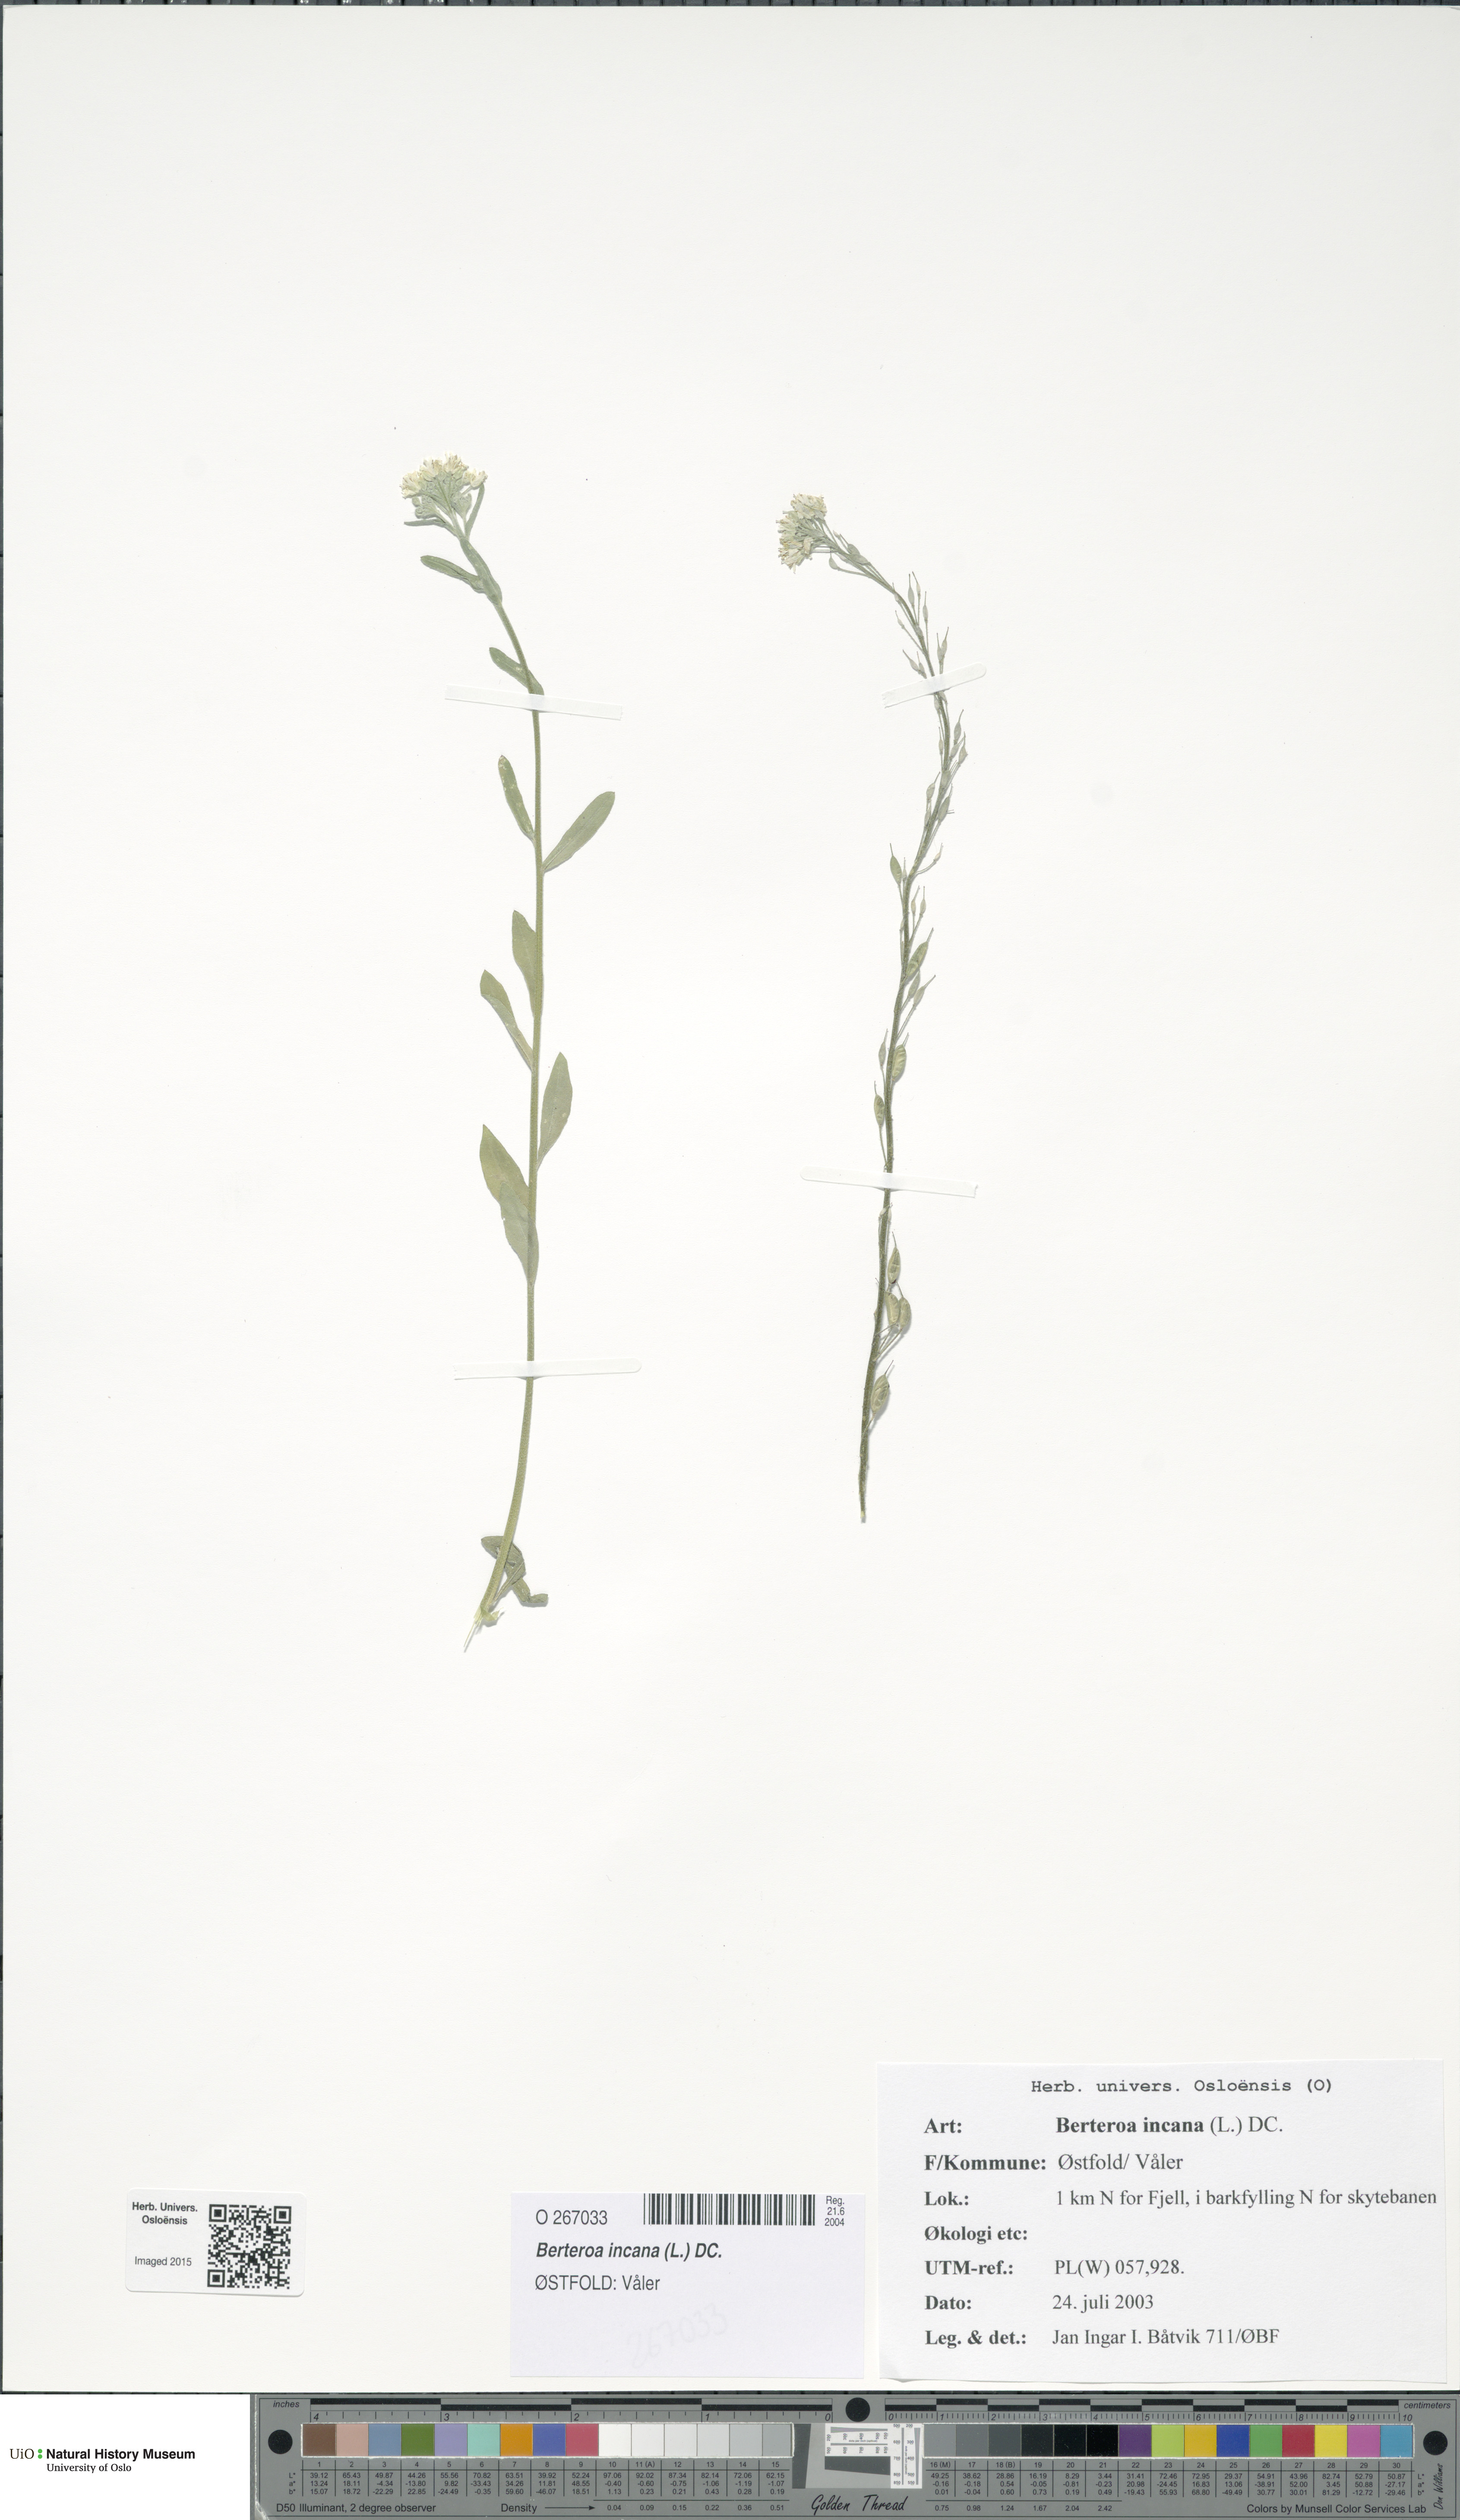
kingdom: Plantae
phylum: Tracheophyta
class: Magnoliopsida
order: Brassicales
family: Brassicaceae
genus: Berteroa
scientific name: Berteroa incana
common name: Hoary alison
